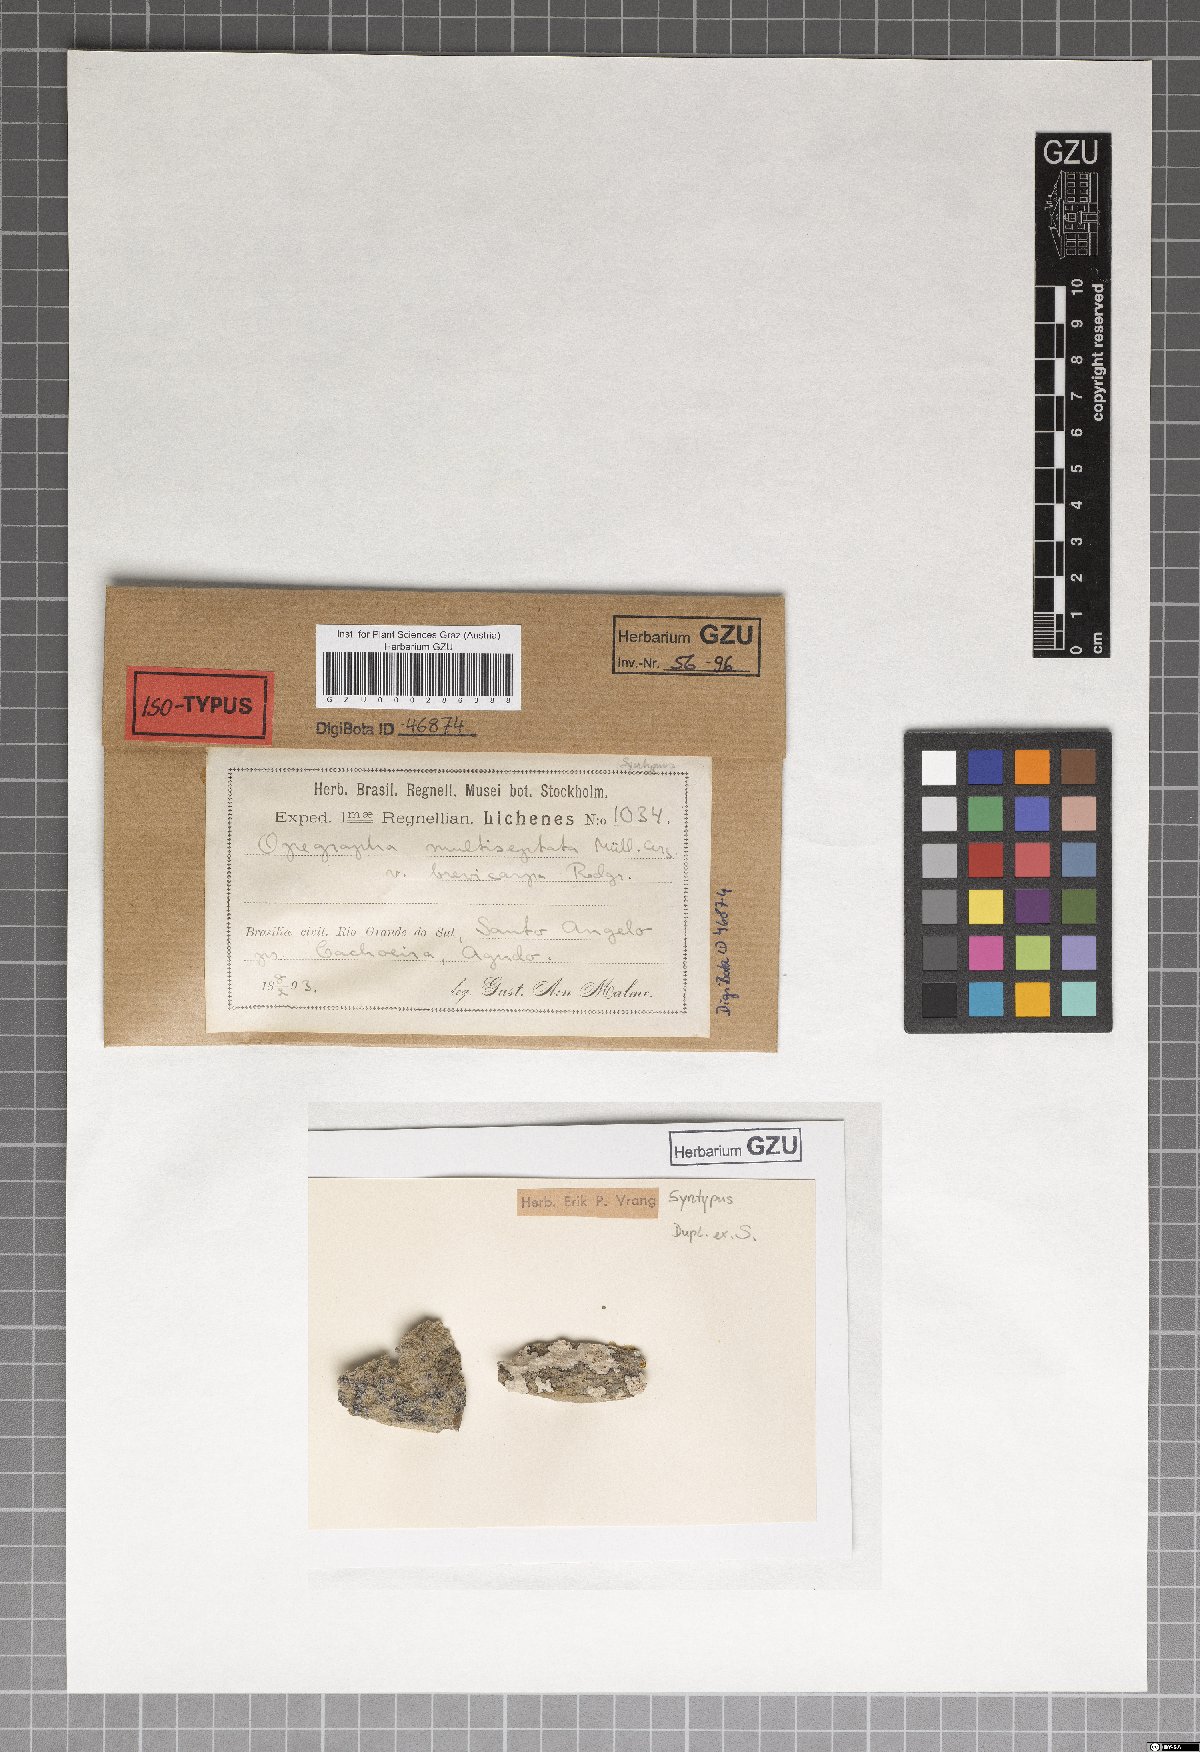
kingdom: Fungi
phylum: Ascomycota
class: Arthoniomycetes
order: Arthoniales
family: Opegraphaceae
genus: Opegrapha
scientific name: Opegrapha multiseptata
